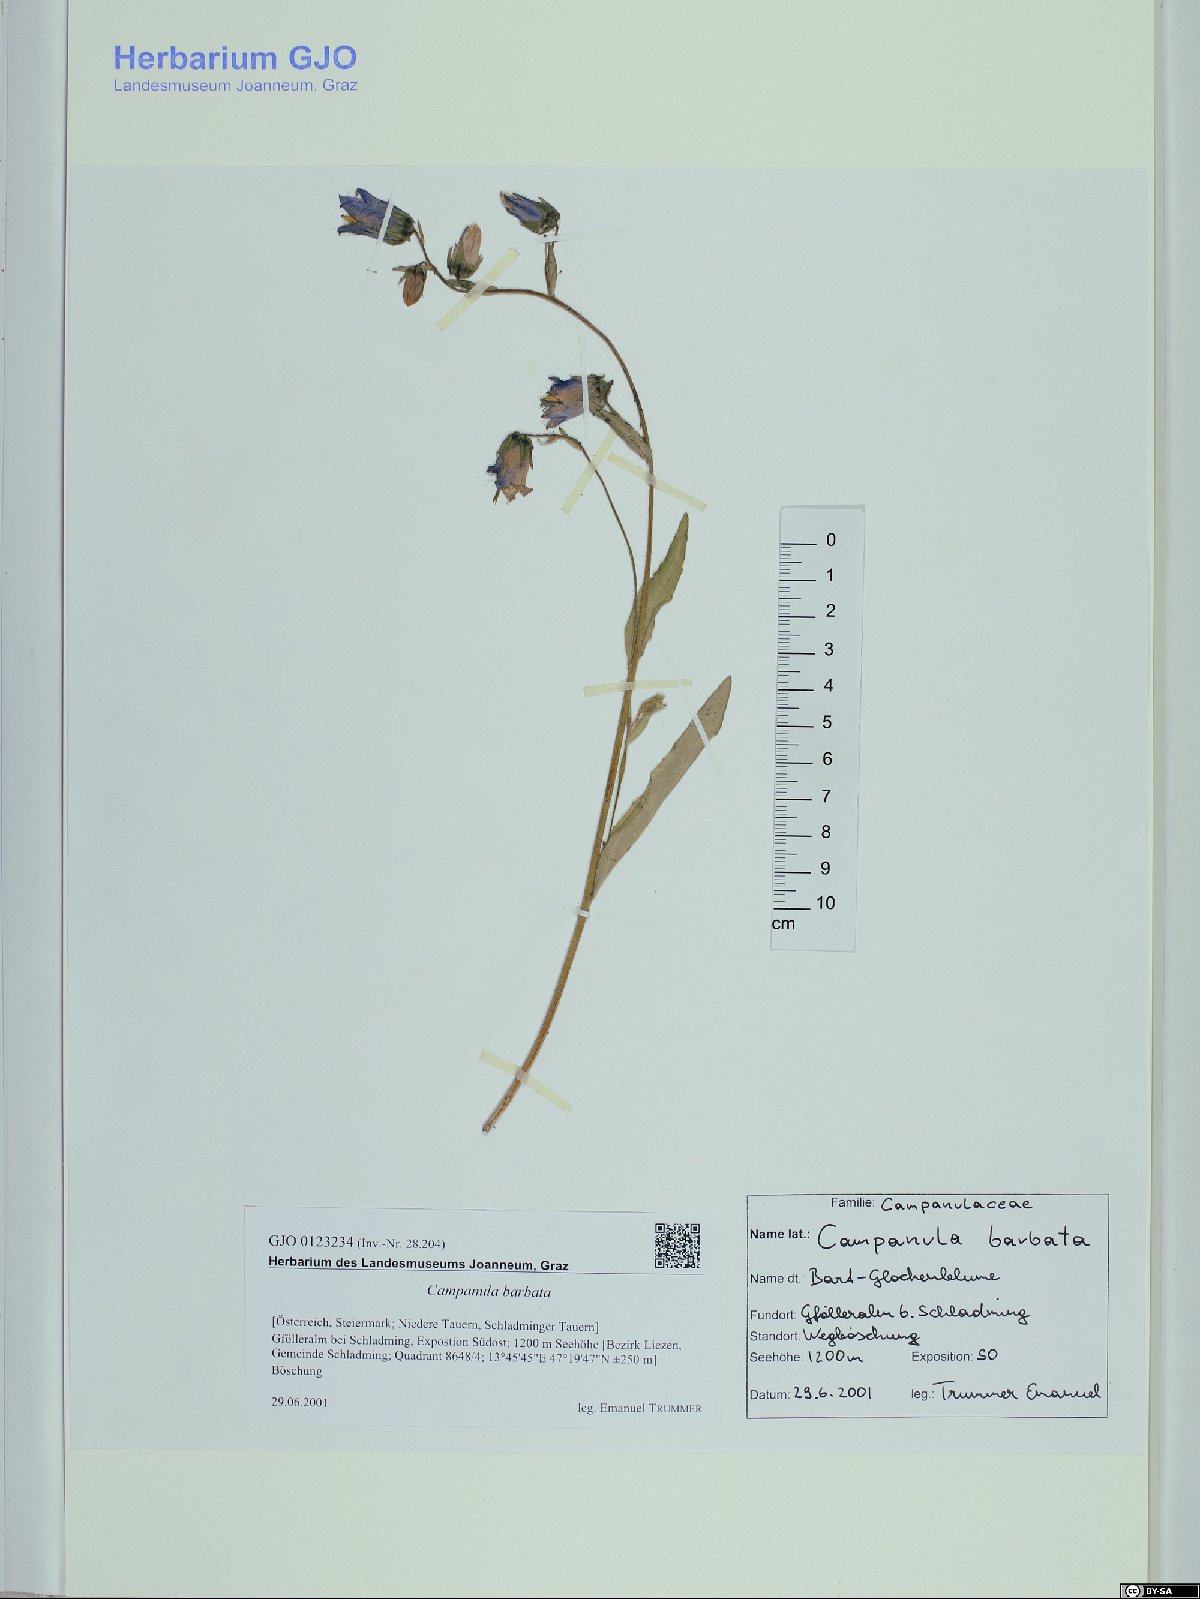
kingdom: Plantae
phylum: Tracheophyta
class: Magnoliopsida
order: Asterales
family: Campanulaceae
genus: Campanula
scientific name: Campanula barbata
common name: Bearded bellflower
